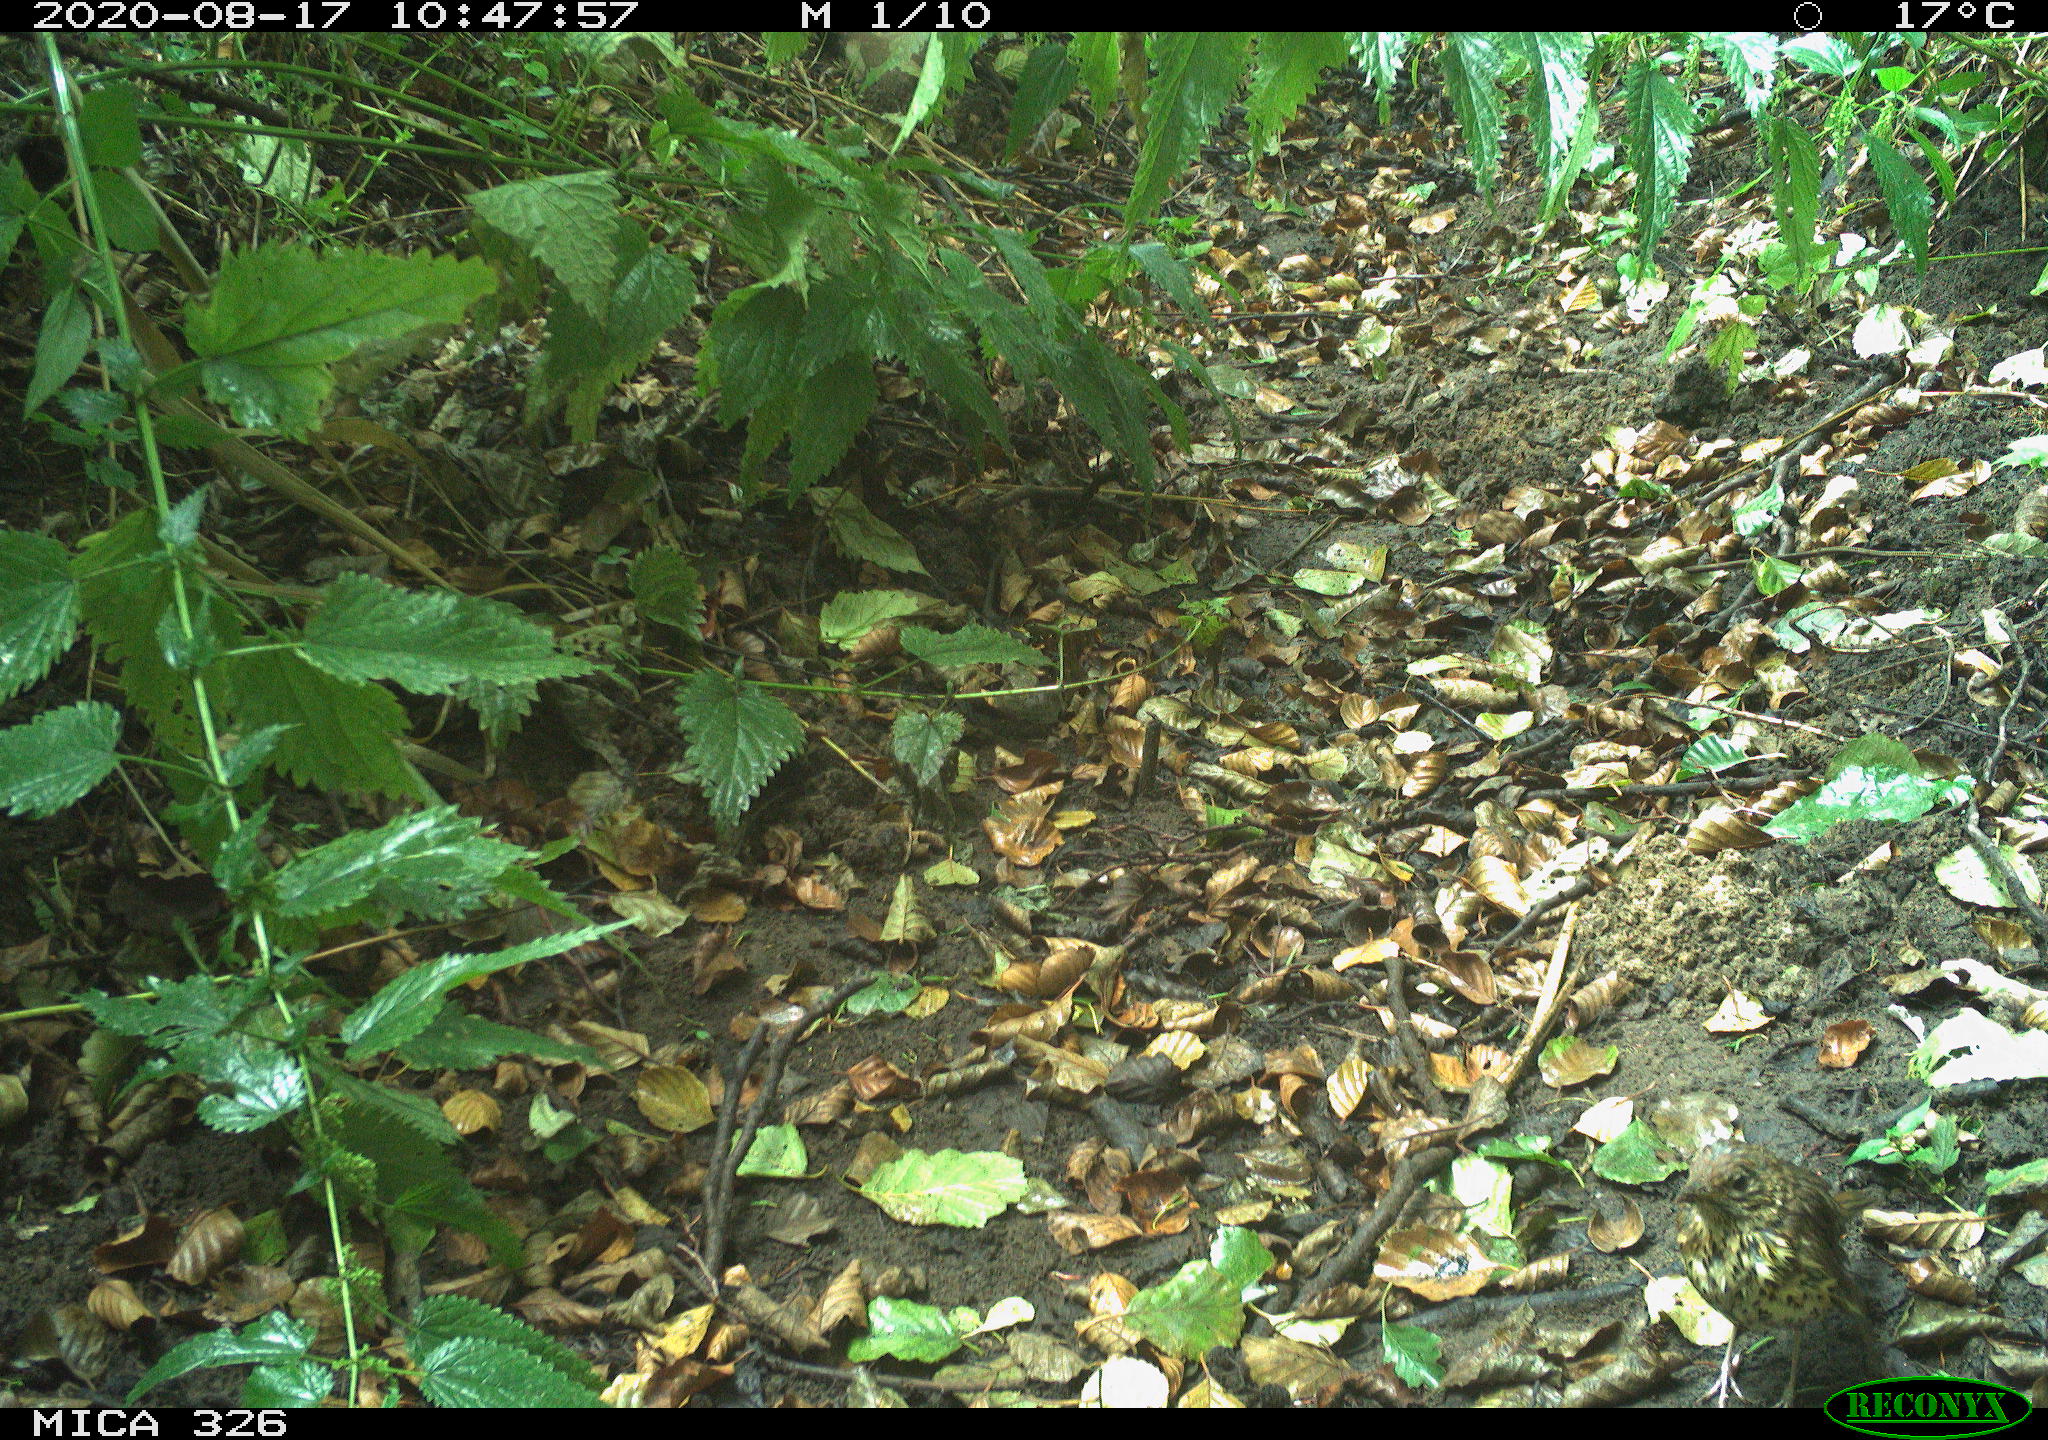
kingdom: Animalia
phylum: Chordata
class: Aves
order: Passeriformes
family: Turdidae
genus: Turdus
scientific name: Turdus philomelos
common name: Song thrush
